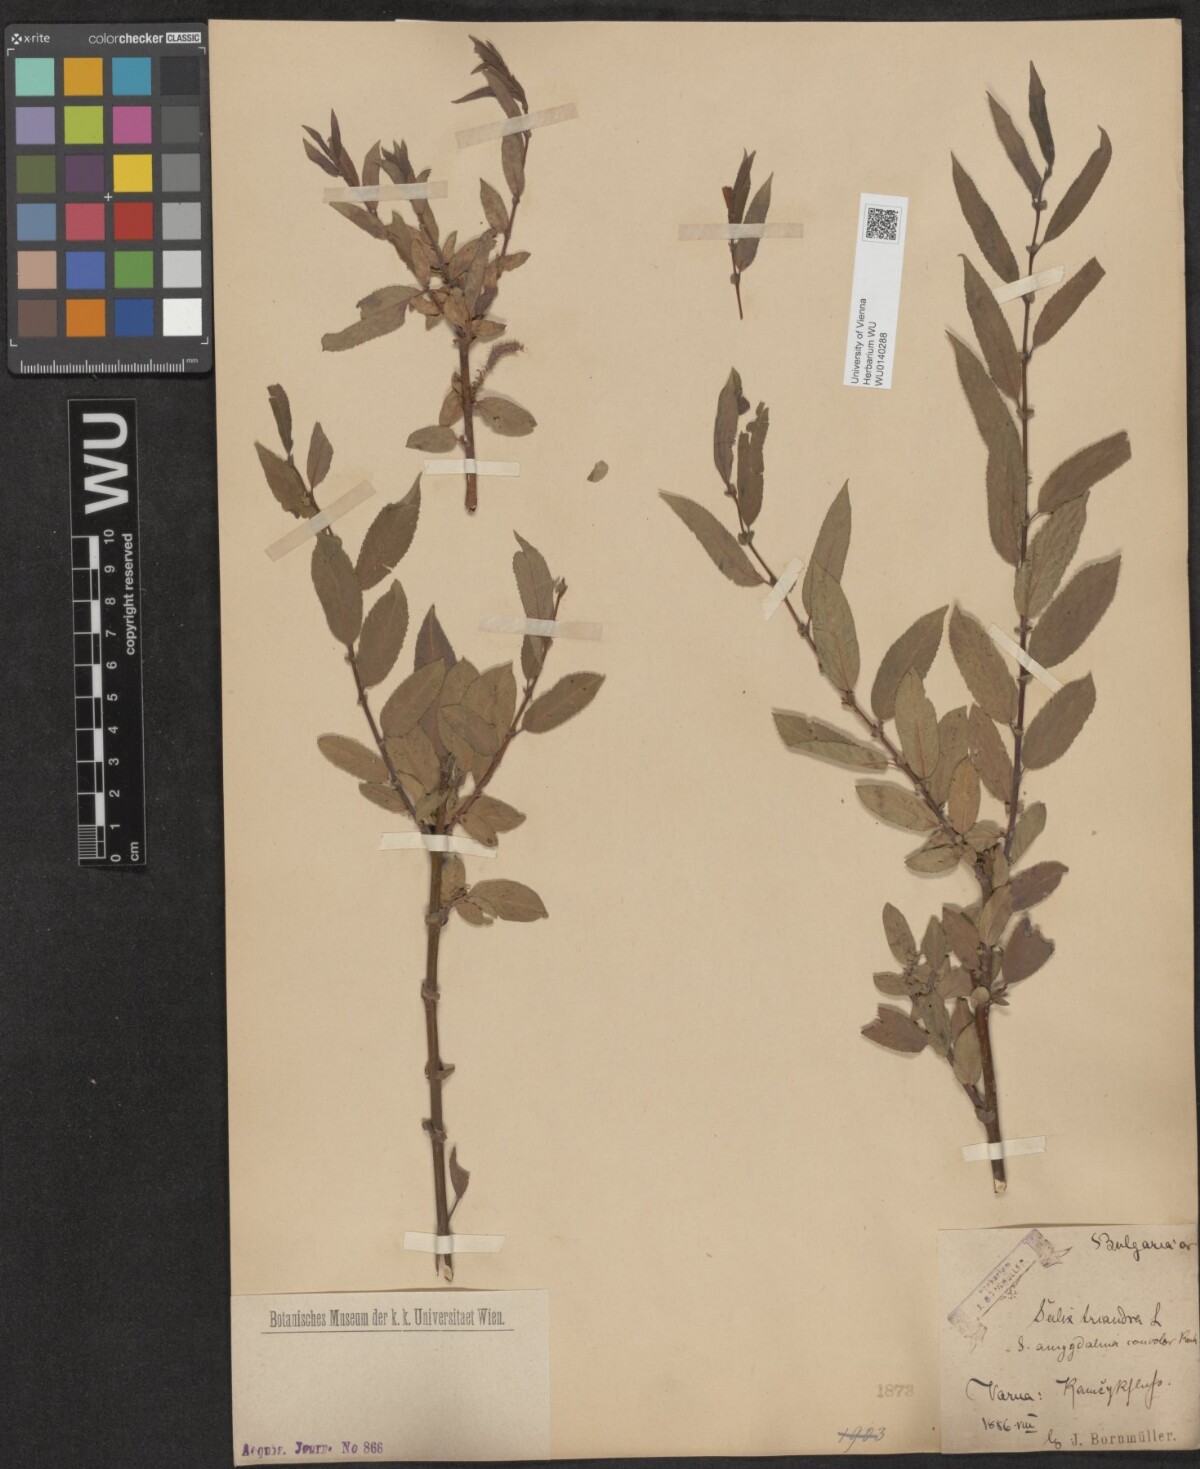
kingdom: Plantae
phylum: Tracheophyta
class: Magnoliopsida
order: Malpighiales
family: Salicaceae
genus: Salix
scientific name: Salix triandra
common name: Almond willow
